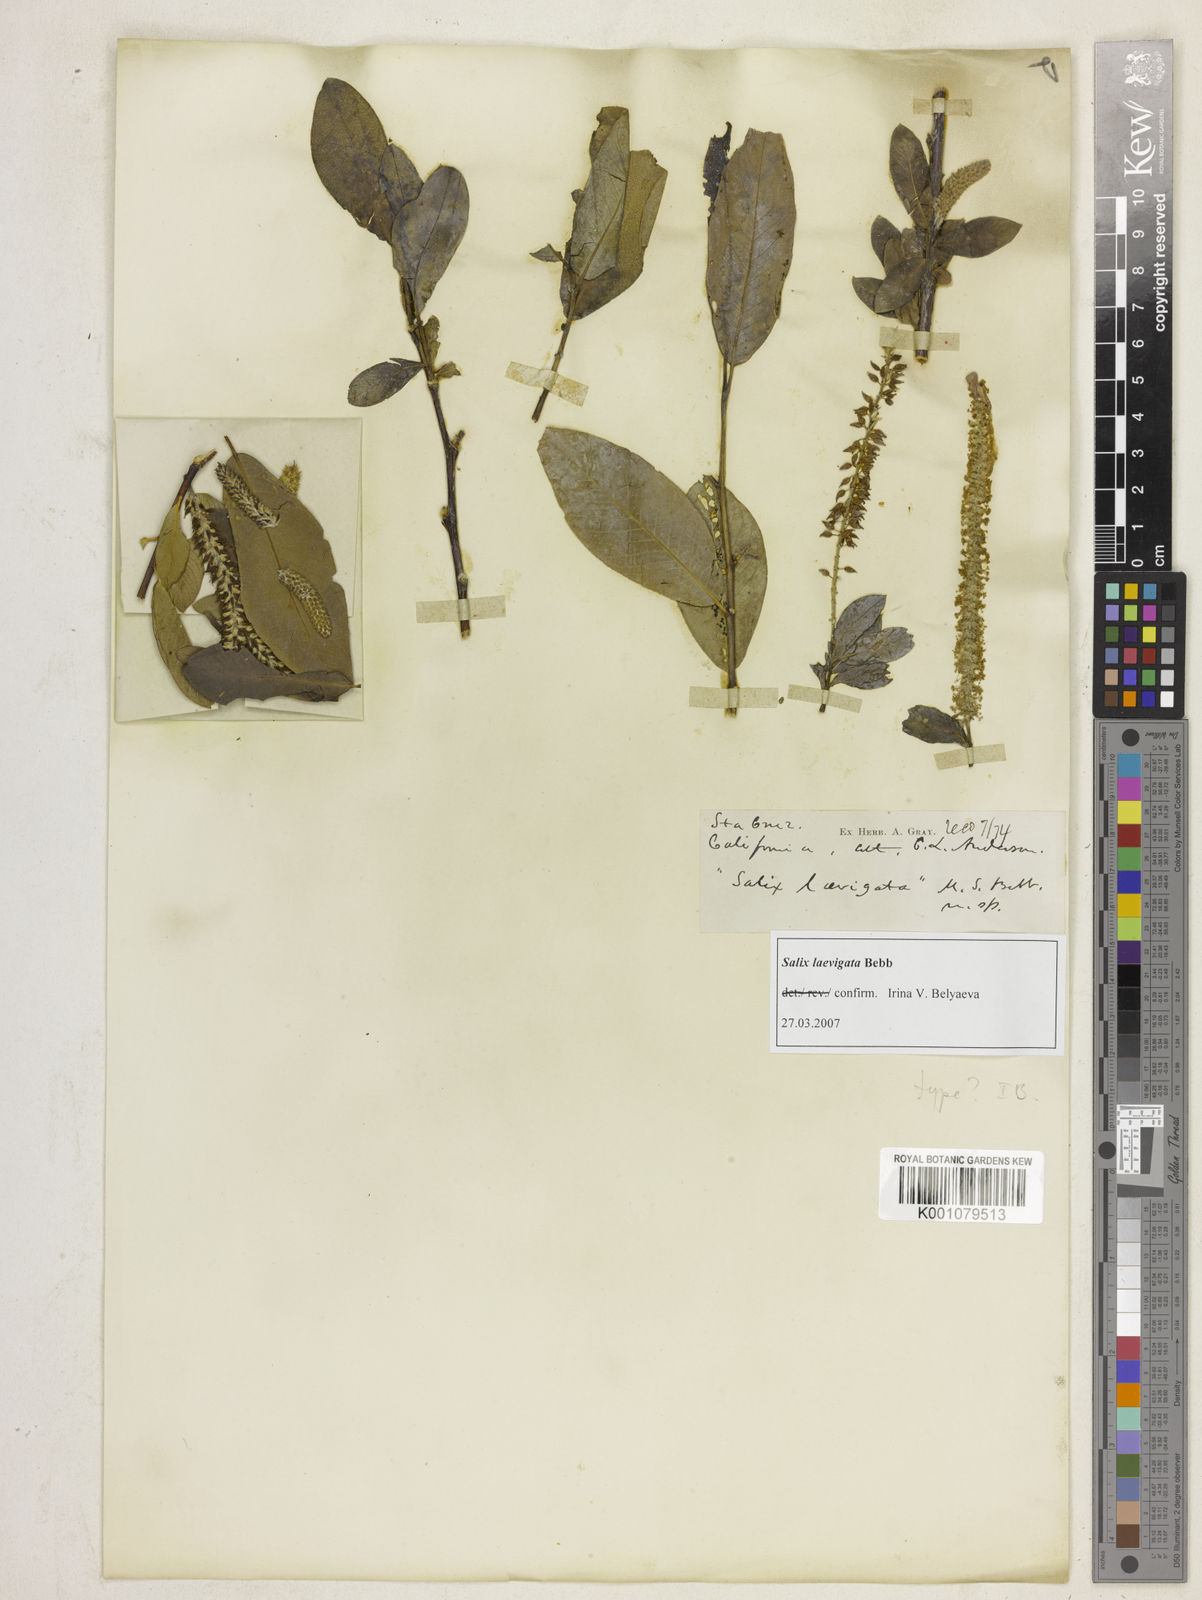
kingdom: Plantae
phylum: Tracheophyta
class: Magnoliopsida
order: Malpighiales
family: Salicaceae
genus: Salix
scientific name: Salix laevigata
